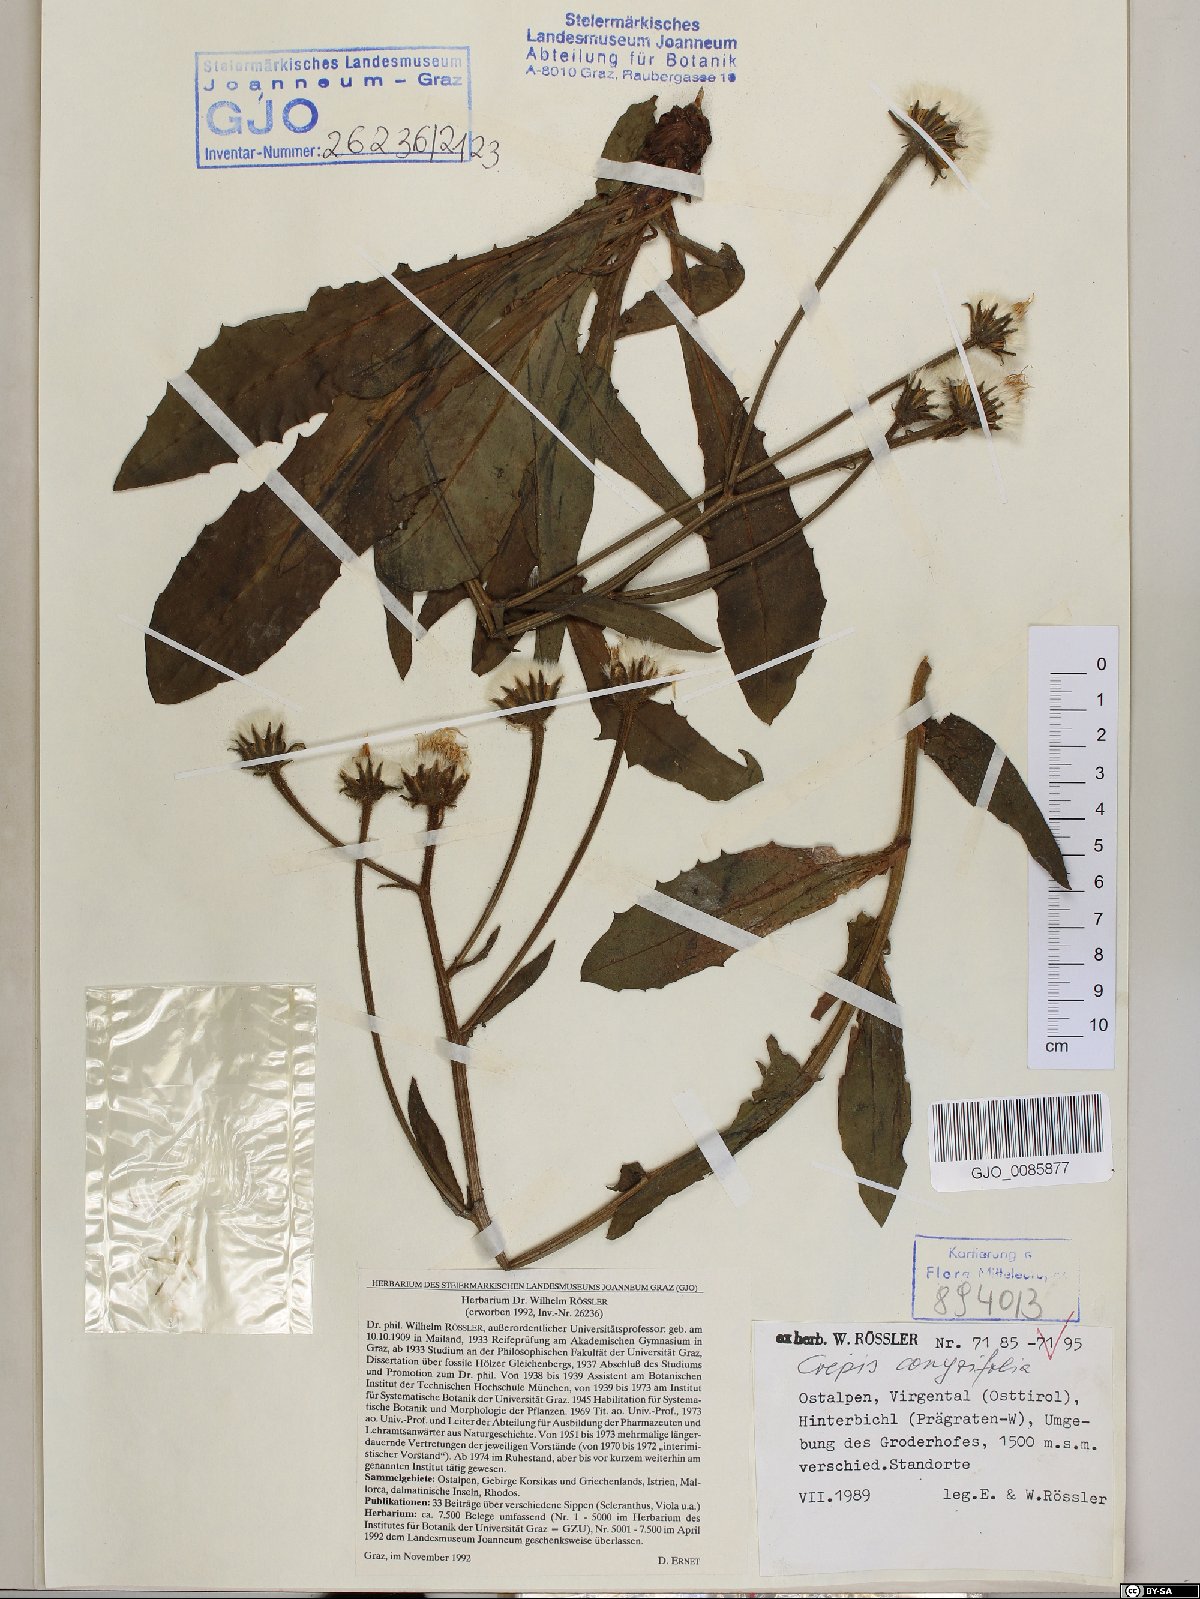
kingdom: Plantae
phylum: Tracheophyta
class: Magnoliopsida
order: Asterales
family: Asteraceae
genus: Crepis
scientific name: Crepis blattarioides
